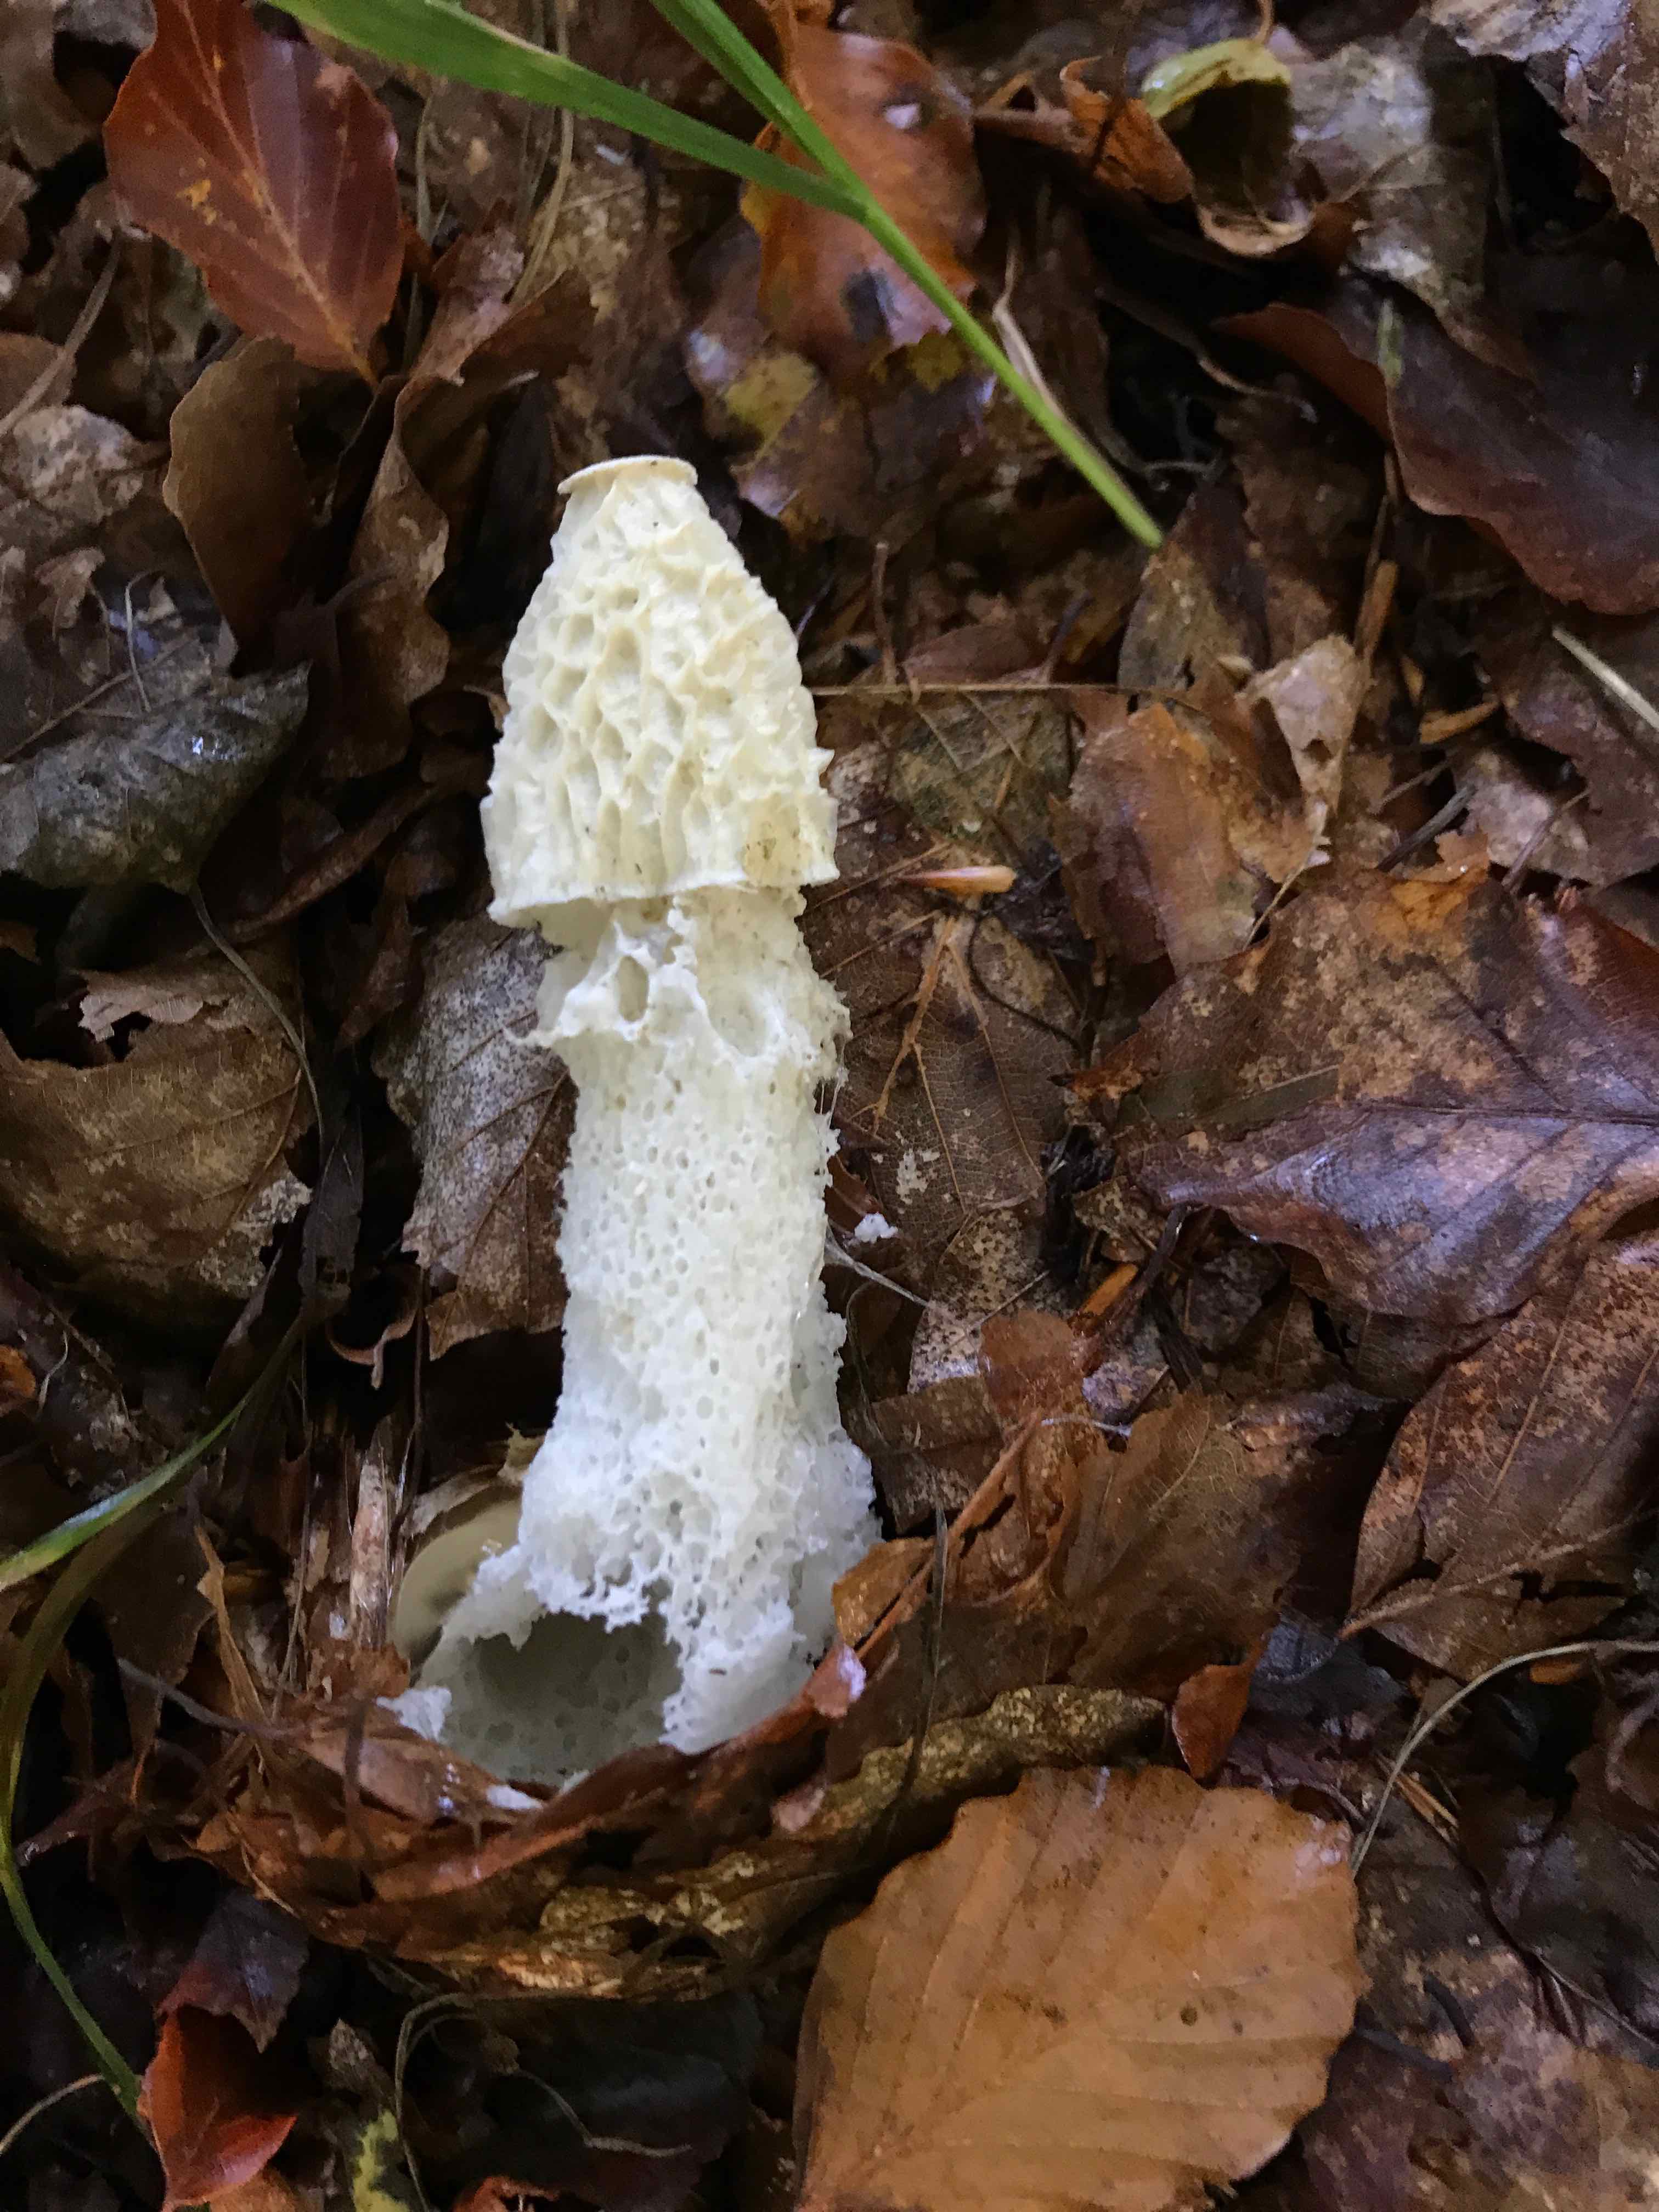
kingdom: Fungi
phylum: Basidiomycota
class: Agaricomycetes
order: Phallales
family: Phallaceae
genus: Phallus
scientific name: Phallus impudicus
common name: almindelig stinksvamp
